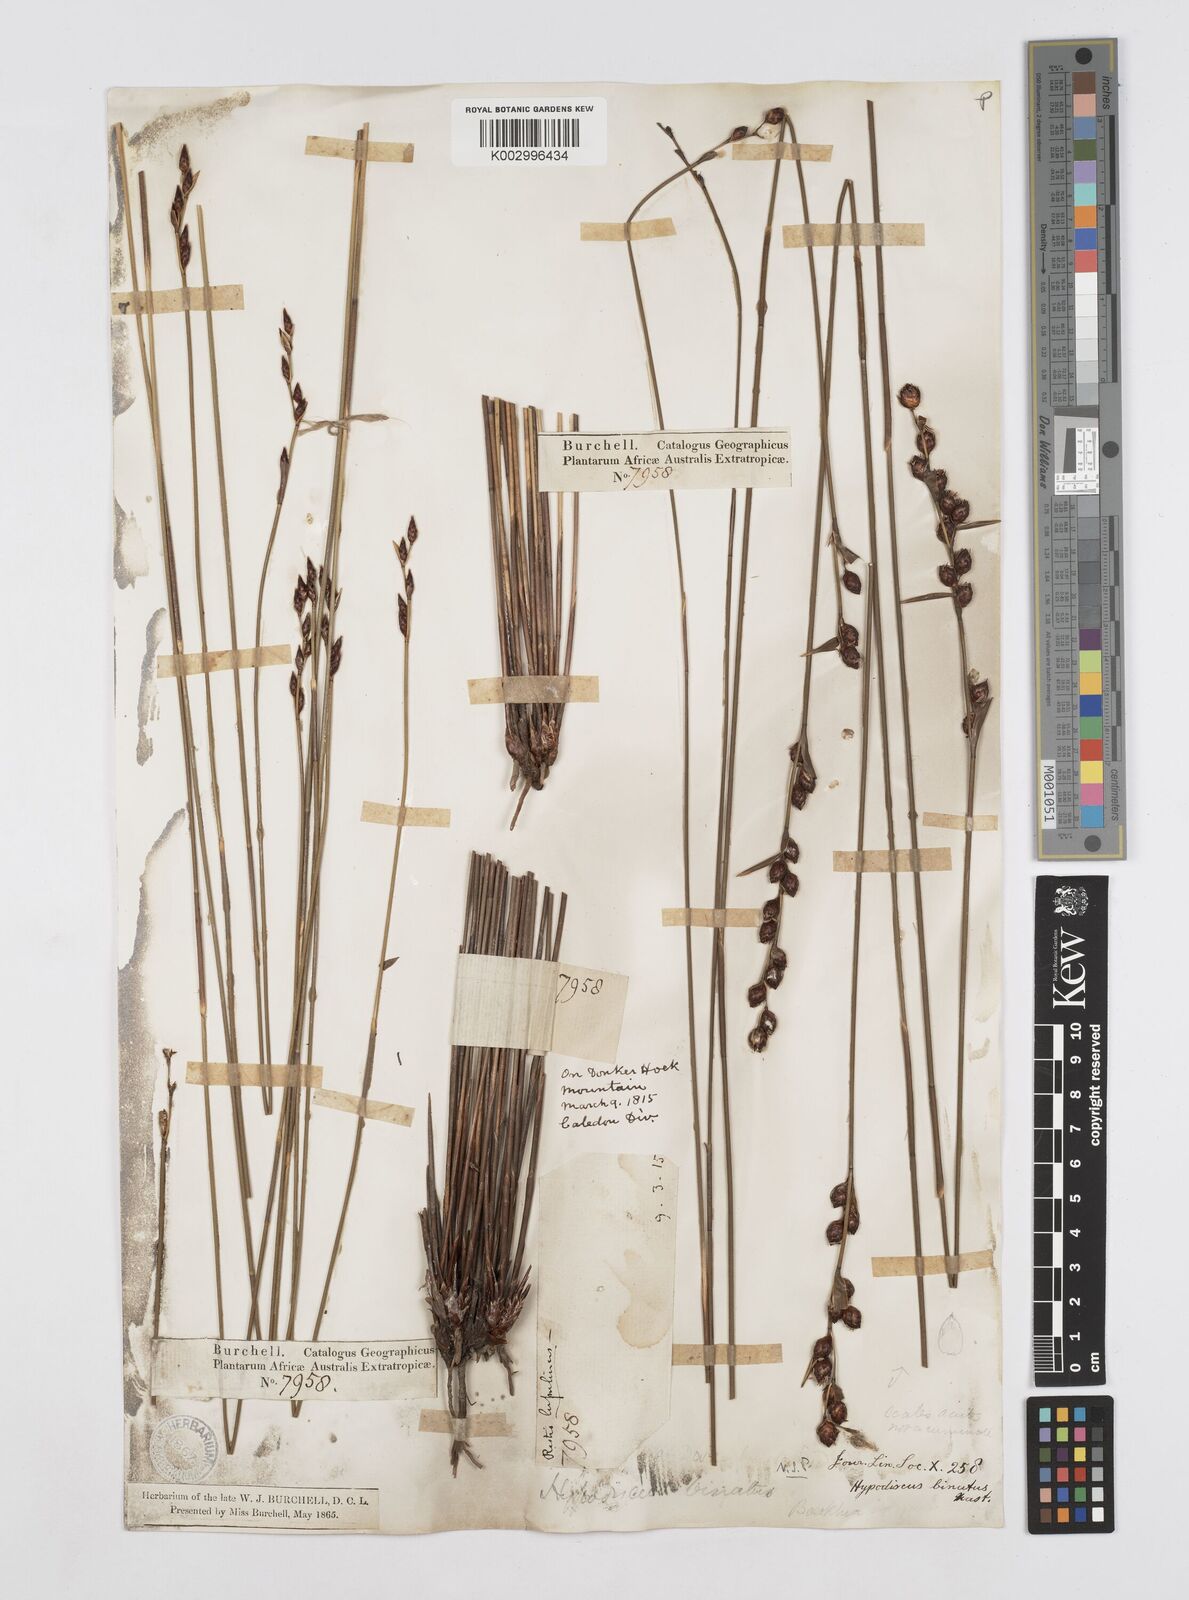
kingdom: Plantae
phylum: Tracheophyta
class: Liliopsida
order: Poales
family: Restionaceae
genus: Hypodiscus
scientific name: Hypodiscus laevigatus
